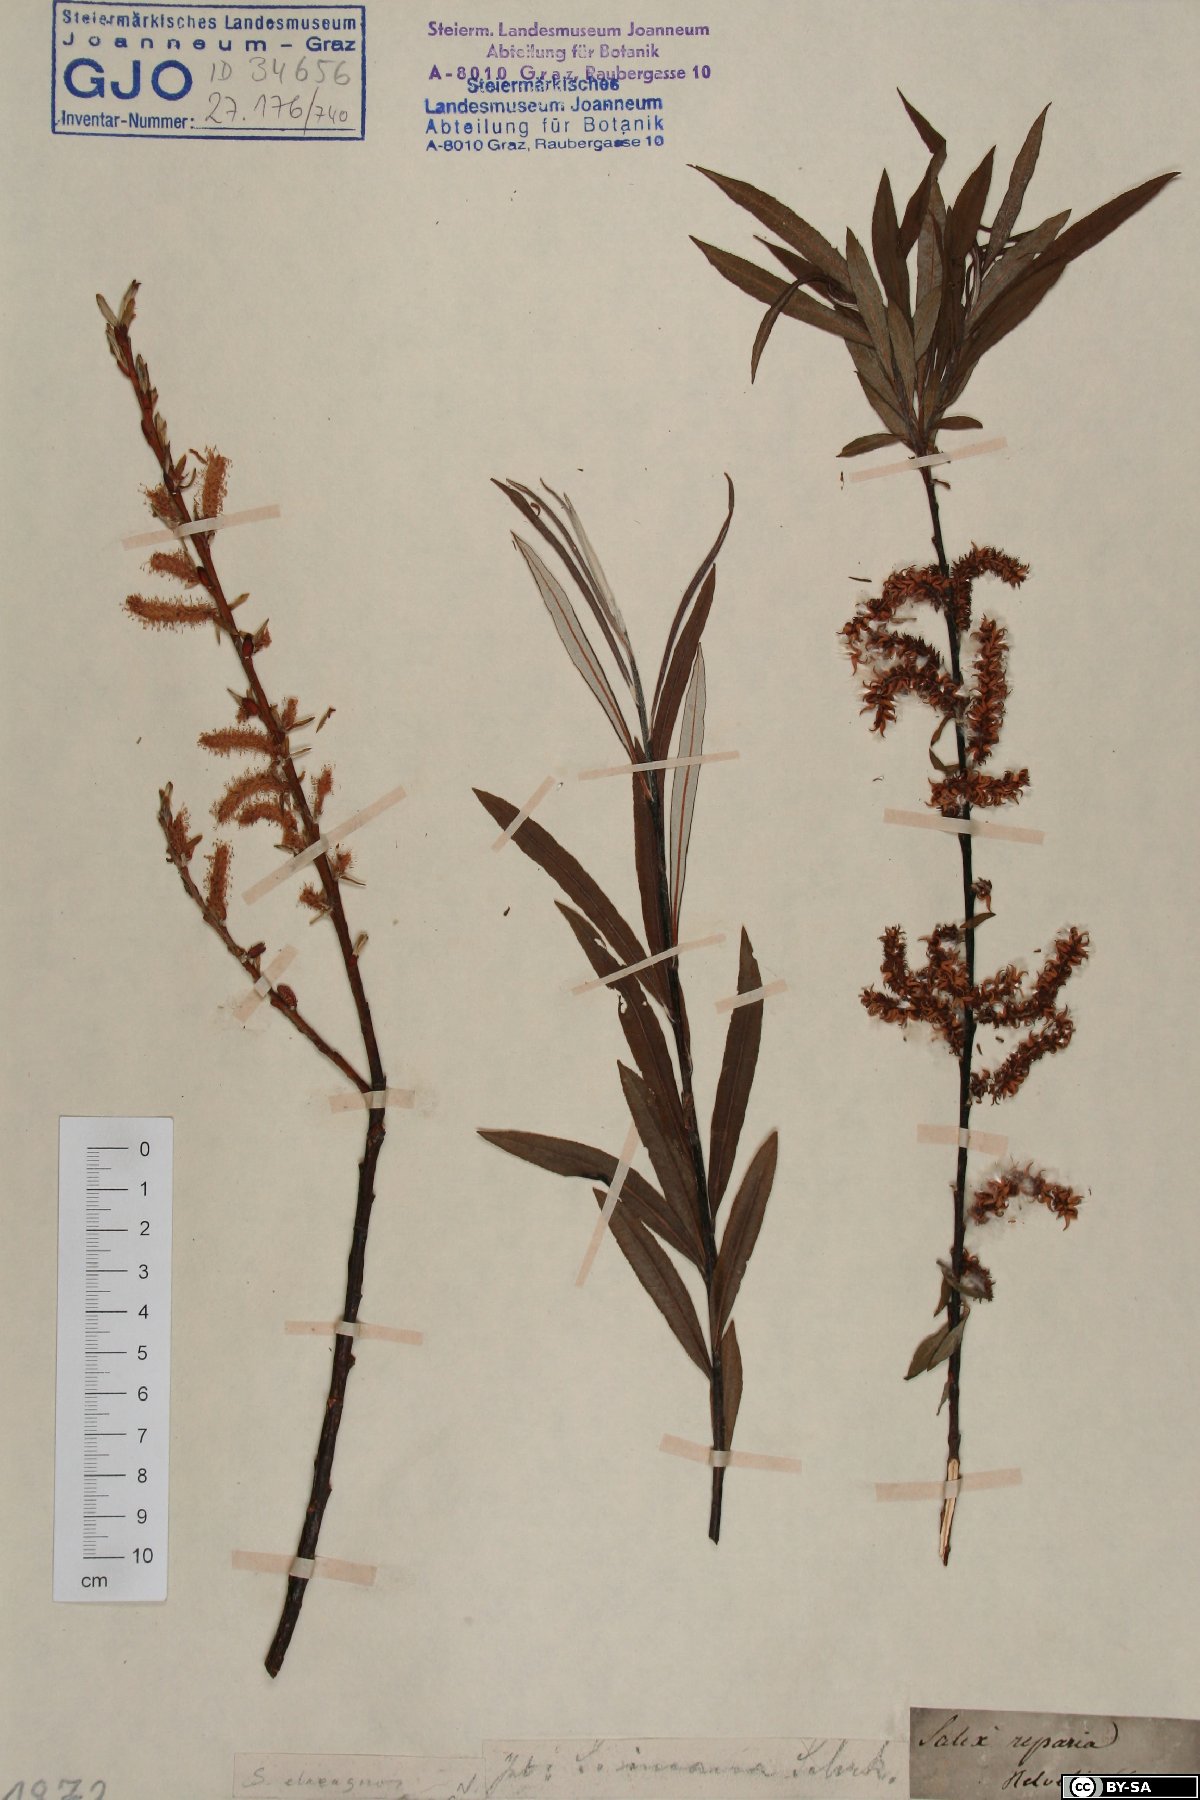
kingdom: Plantae
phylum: Tracheophyta
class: Magnoliopsida
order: Malpighiales
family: Salicaceae
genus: Salix
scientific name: Salix eleagnos
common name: Elaeagnus willow
